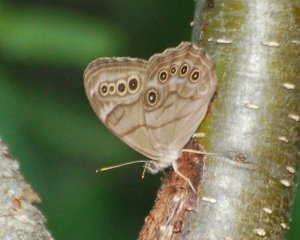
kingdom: Animalia
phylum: Arthropoda
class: Insecta
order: Lepidoptera
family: Nymphalidae
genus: Lethe
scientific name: Lethe anthedon
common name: Northern Pearly-Eye
